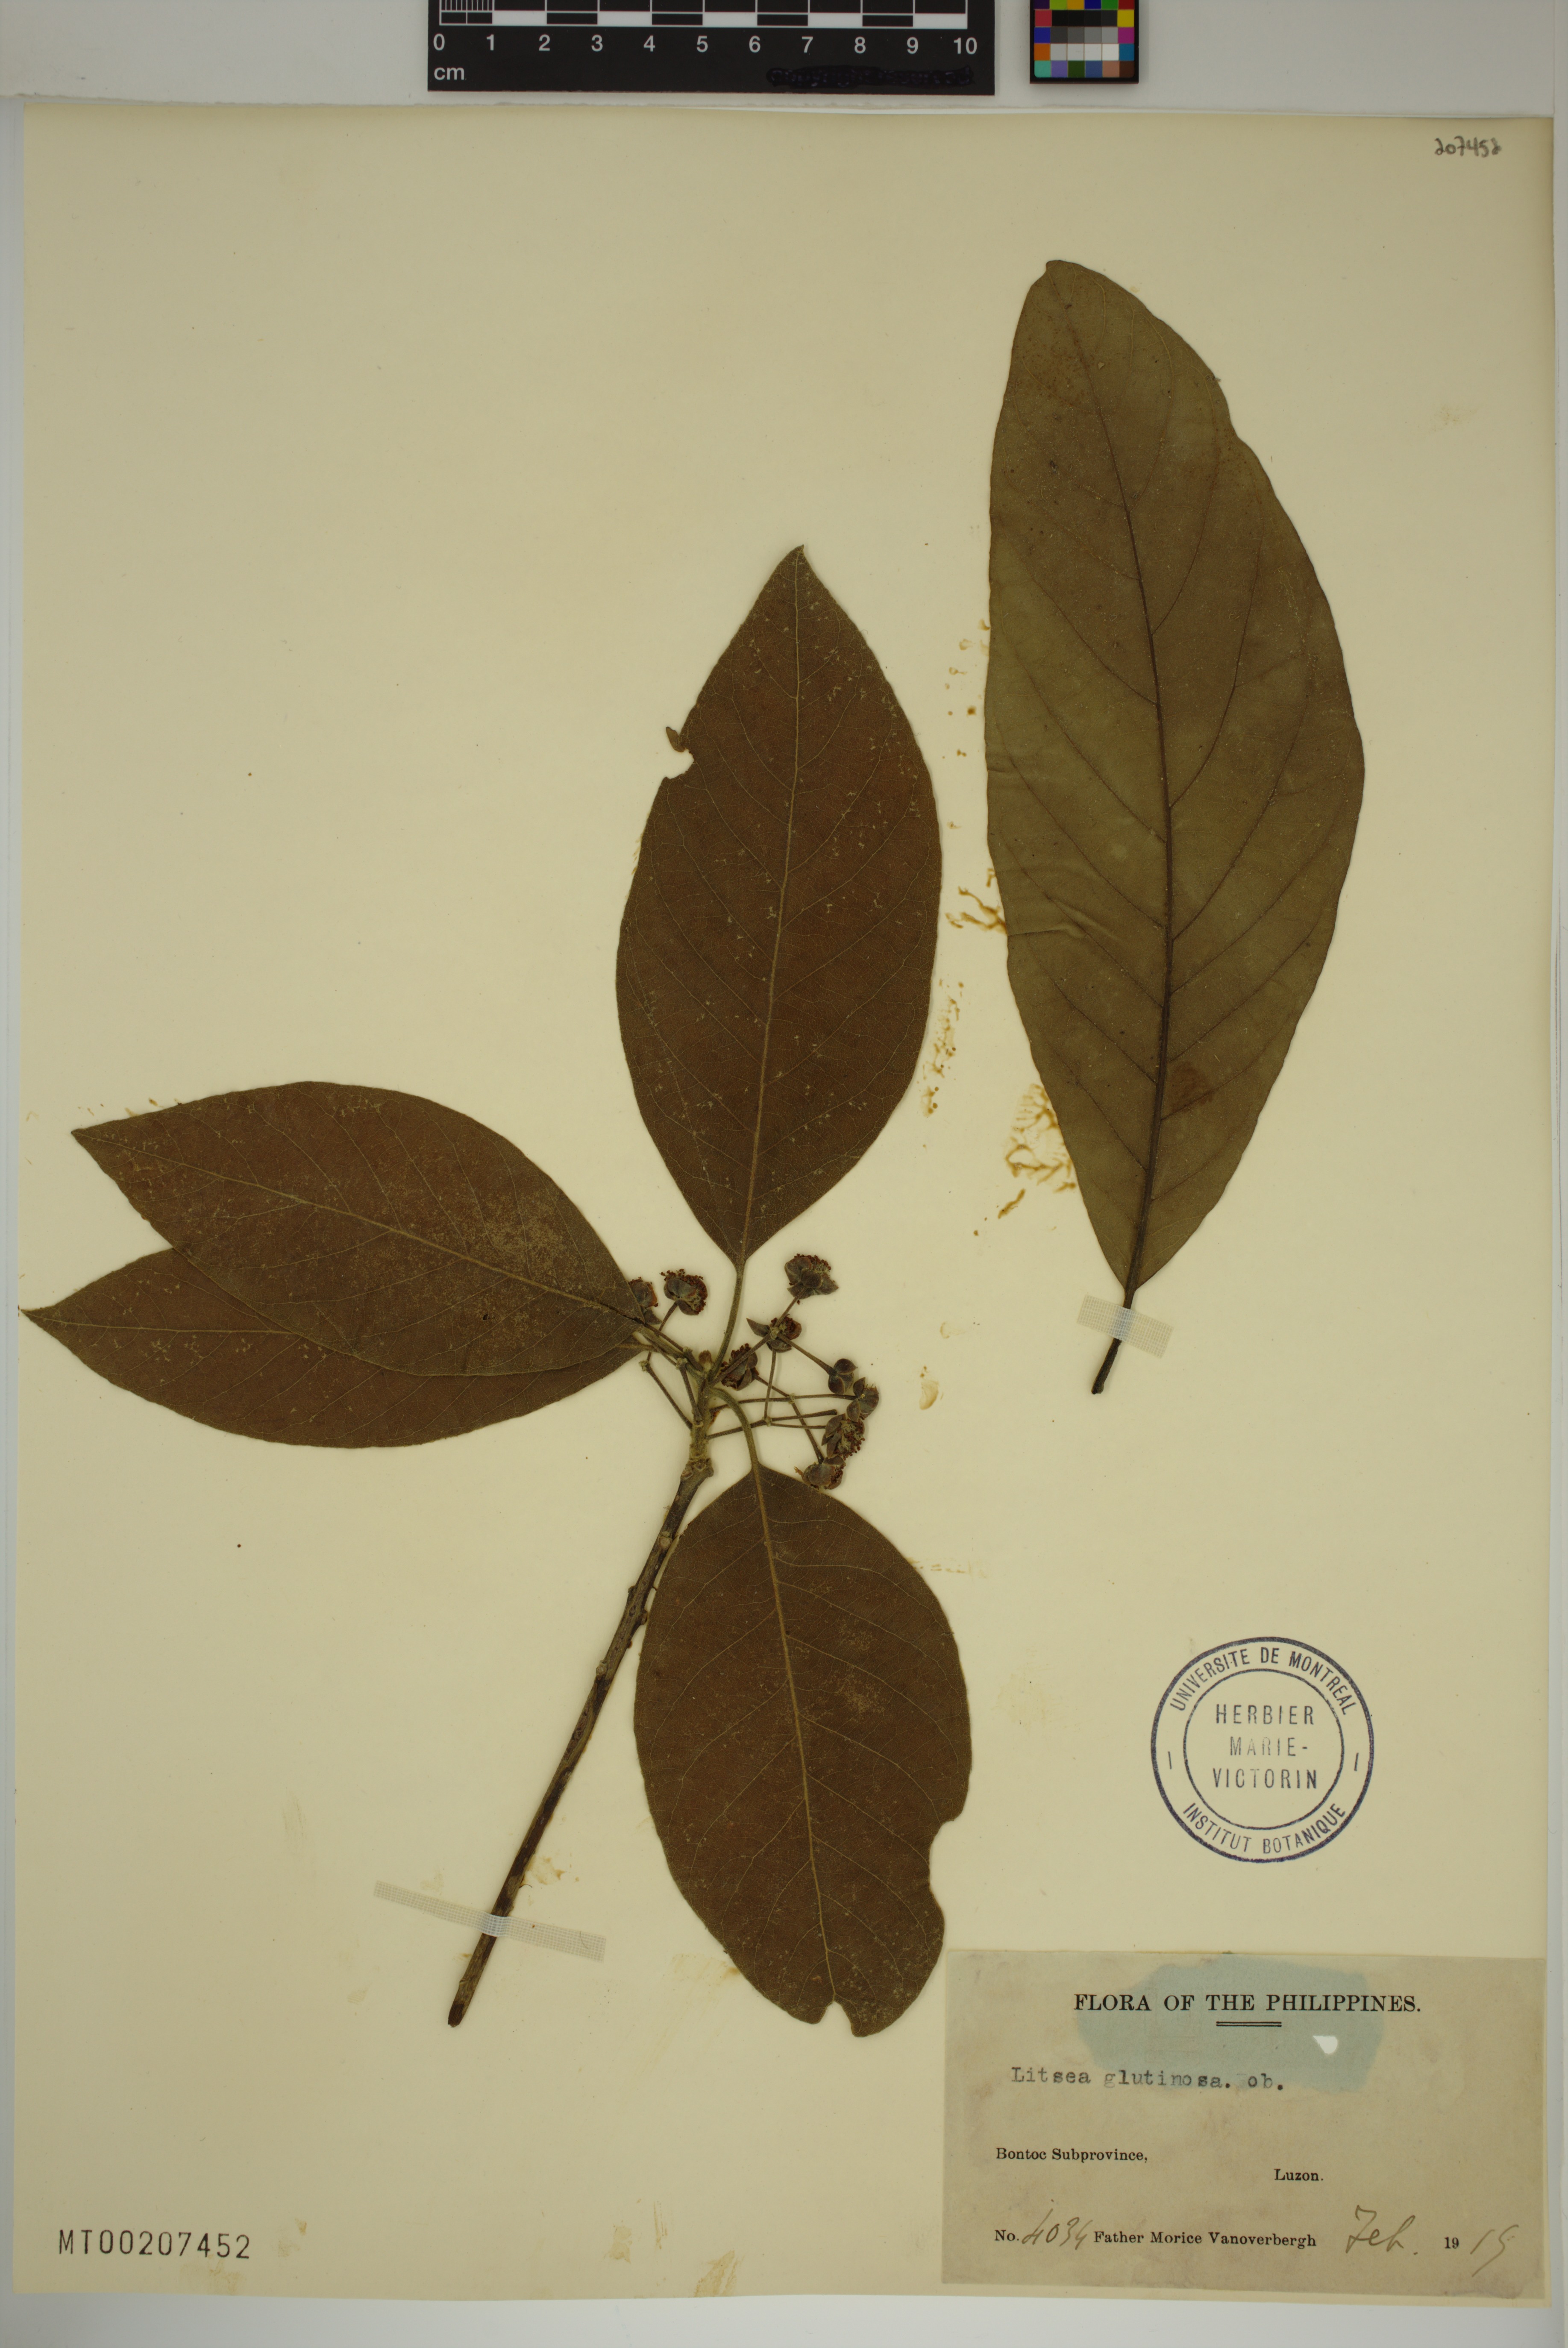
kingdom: Plantae
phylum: Tracheophyta
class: Magnoliopsida
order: Laurales
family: Lauraceae
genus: Litsea
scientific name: Litsea glutinosa
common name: Indian-laurel
